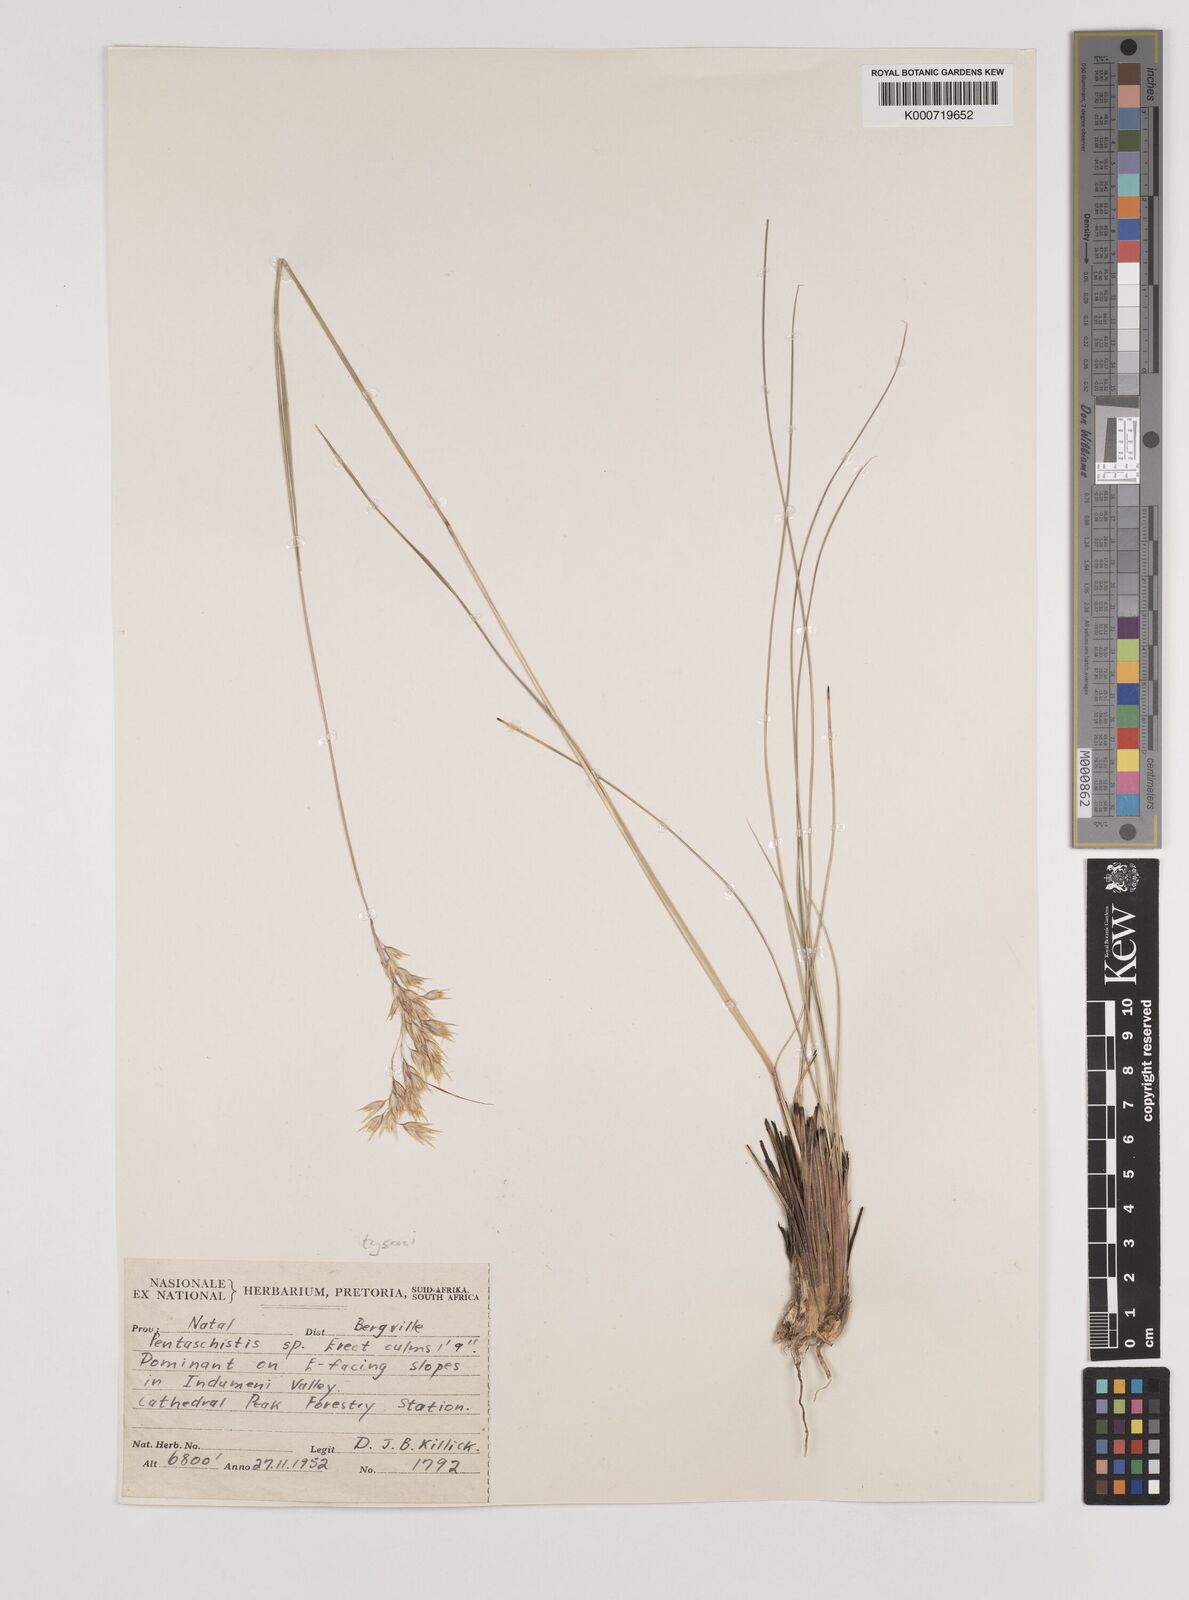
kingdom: Plantae
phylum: Tracheophyta
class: Liliopsida
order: Poales
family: Poaceae
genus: Pentameris
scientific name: Pentameris tysonii
